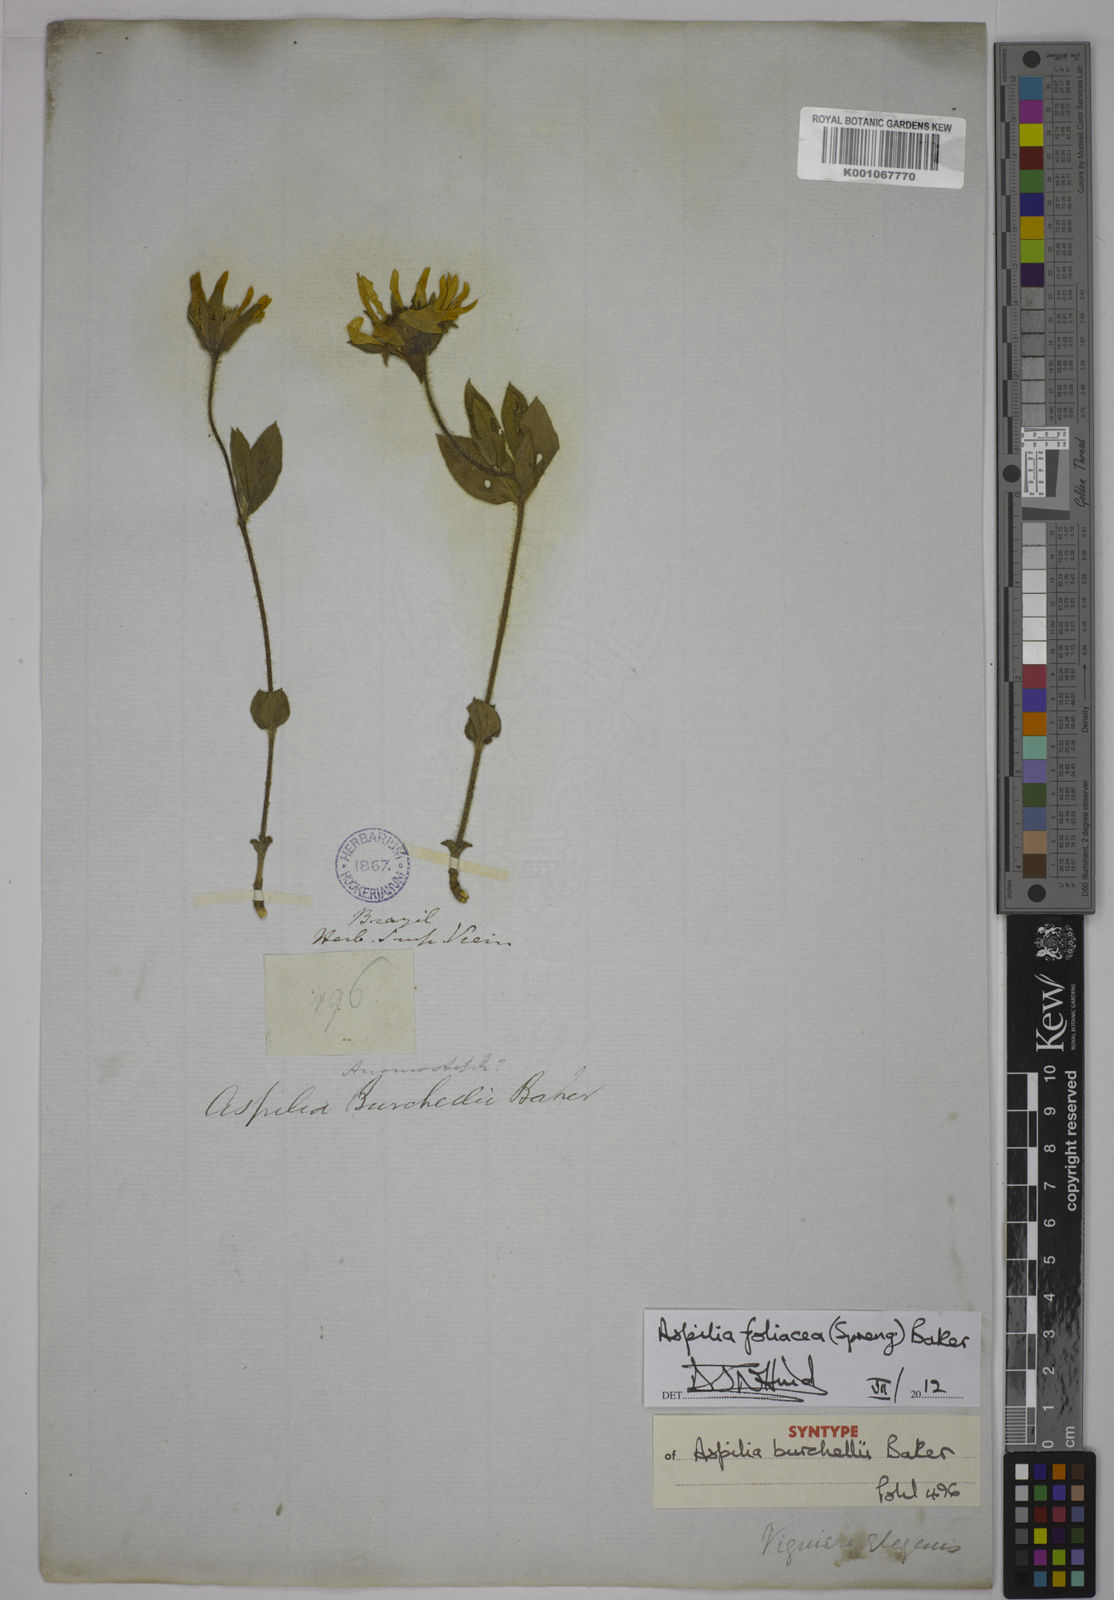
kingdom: Plantae
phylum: Tracheophyta
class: Magnoliopsida
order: Asterales
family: Asteraceae
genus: Aspilia
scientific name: Aspilia
